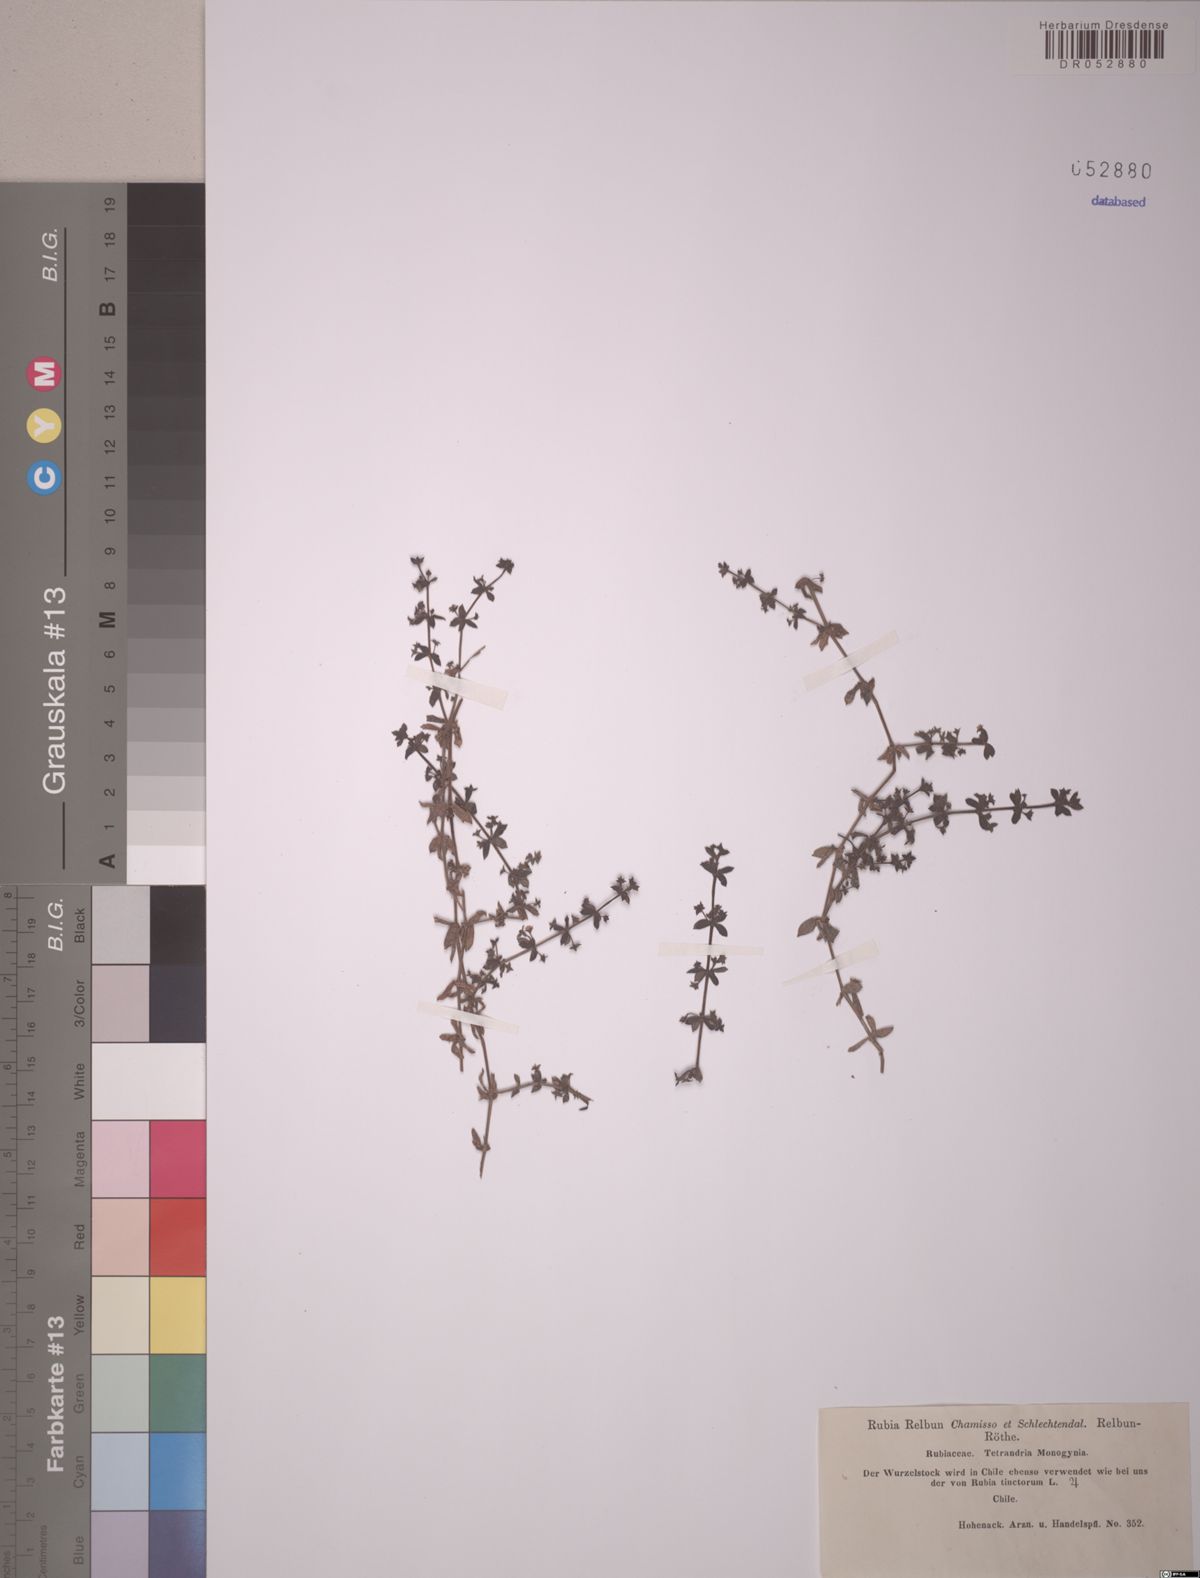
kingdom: Plantae
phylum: Tracheophyta
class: Magnoliopsida
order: Gentianales
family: Rubiaceae
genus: Galium
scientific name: Galium hypocarpium
